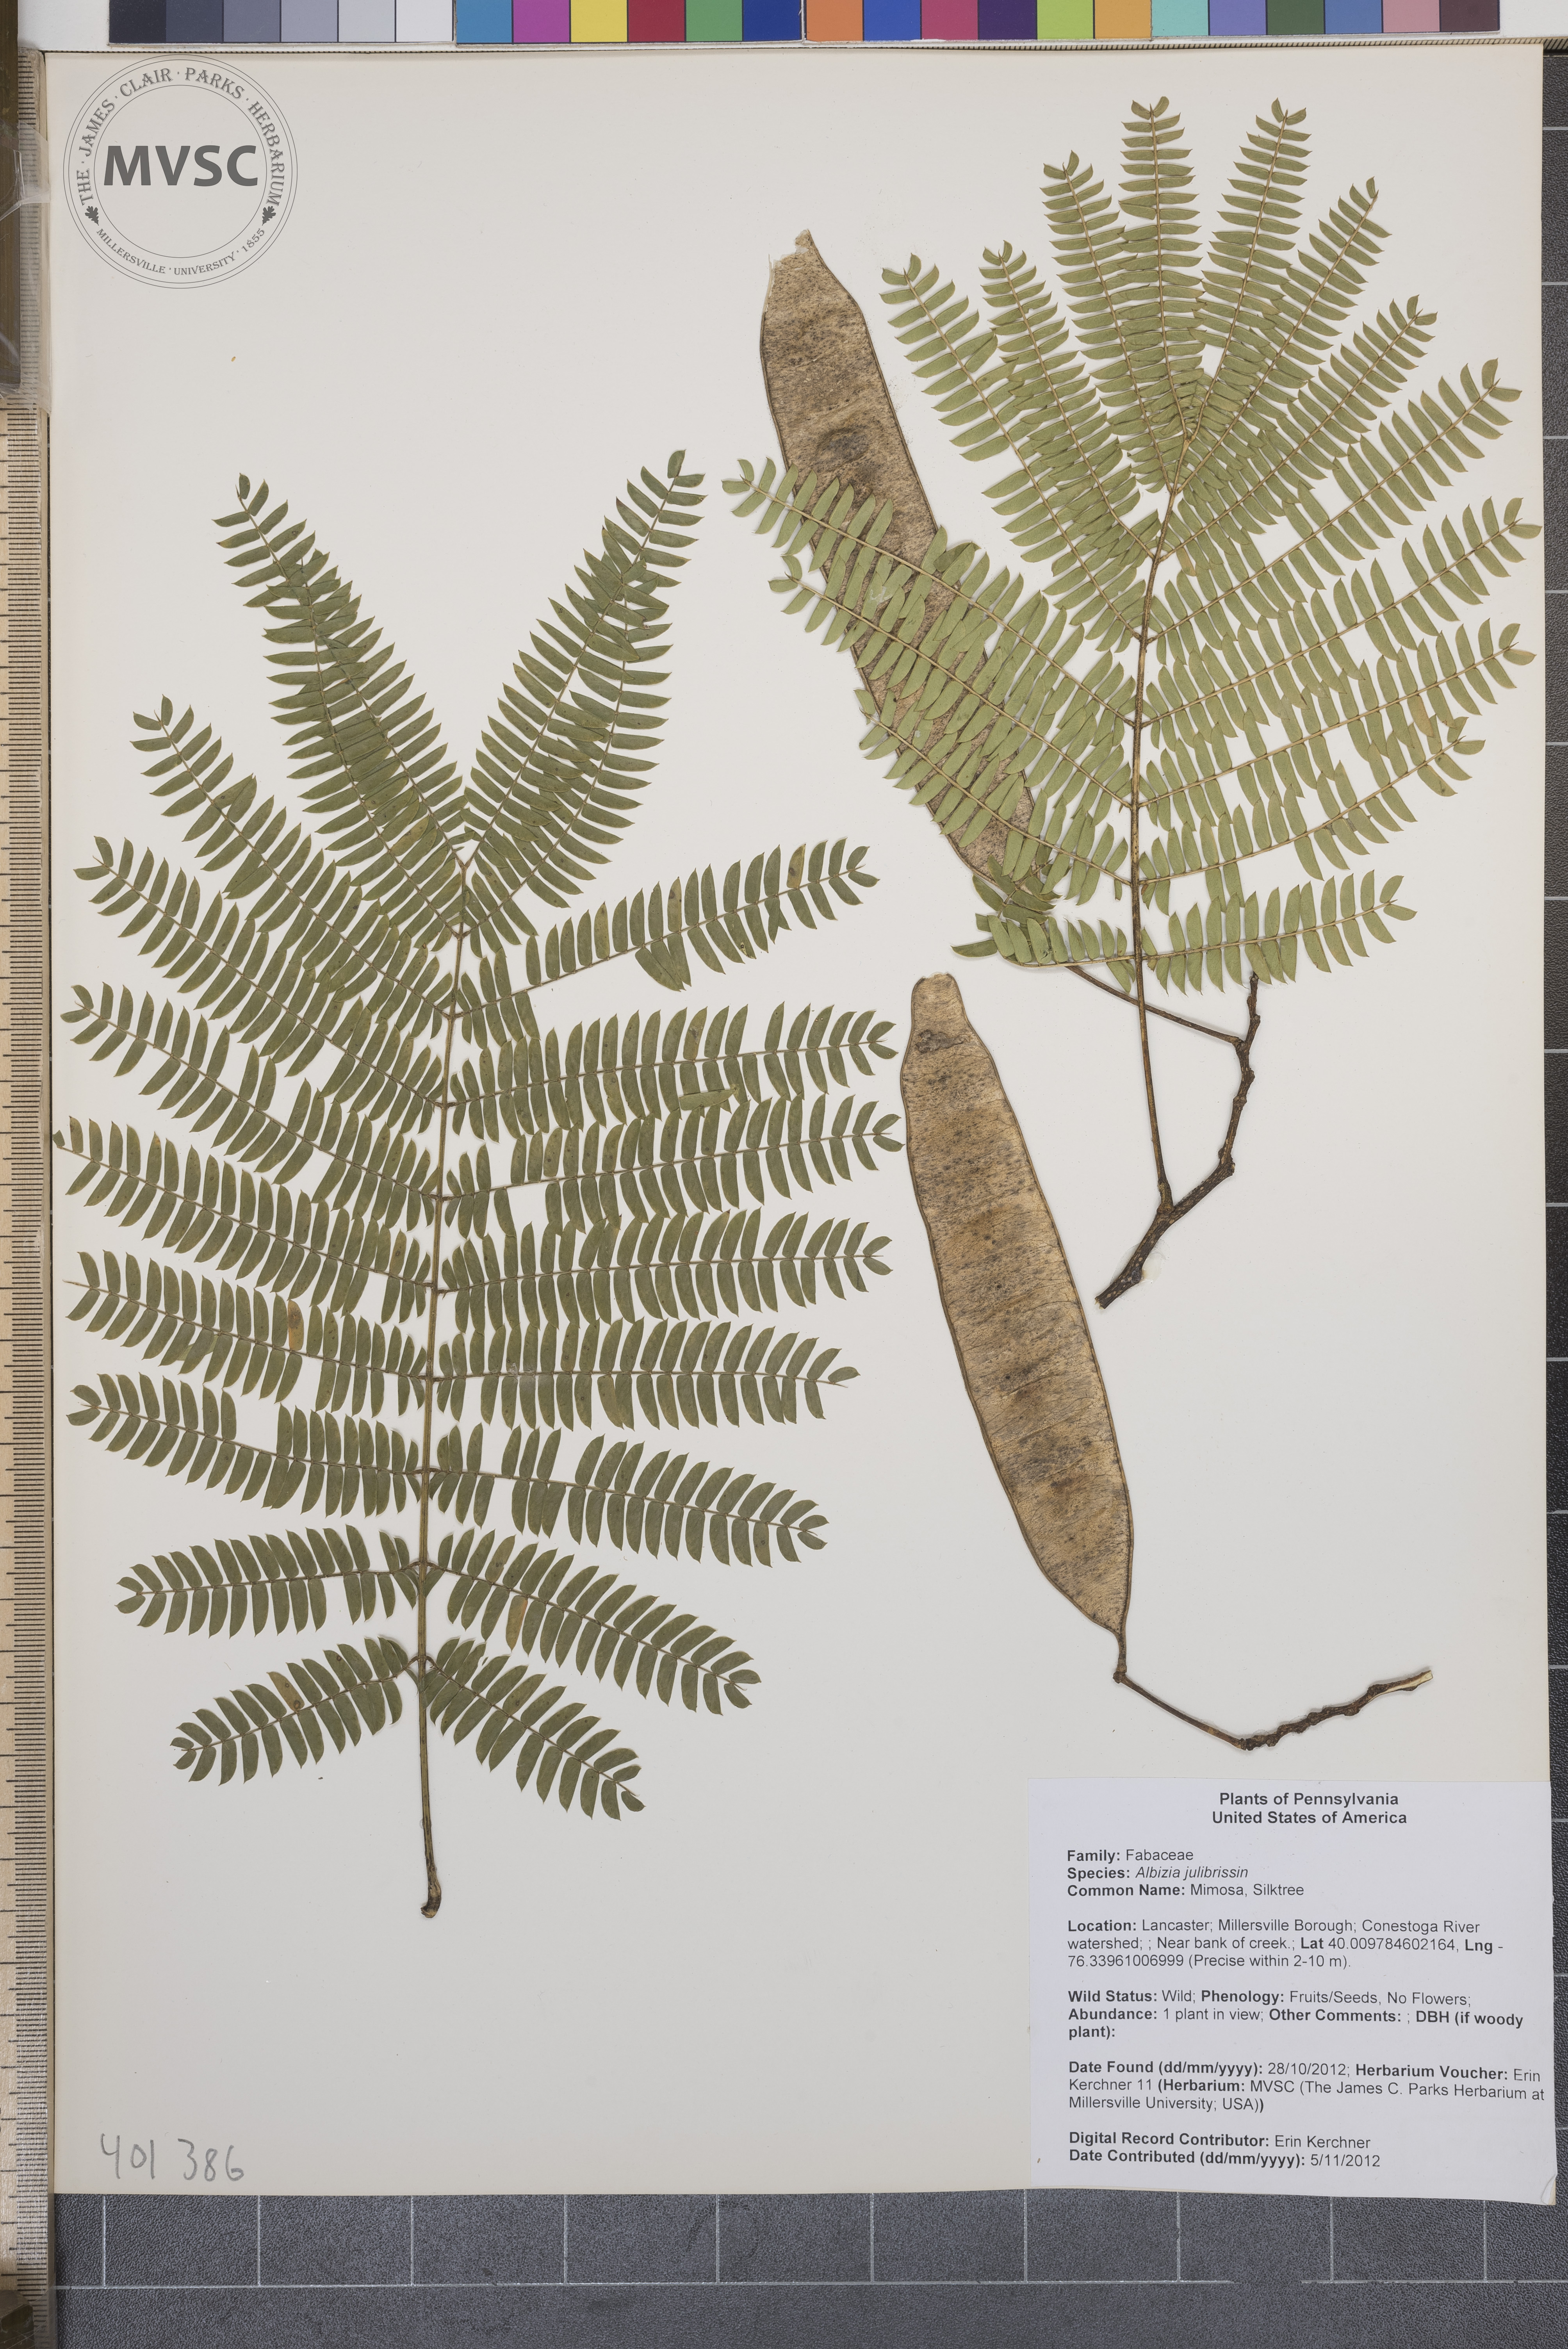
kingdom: Plantae
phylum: Tracheophyta
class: Magnoliopsida
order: Fabales
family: Fabaceae
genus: Albizia
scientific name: Albizia julibrissin
